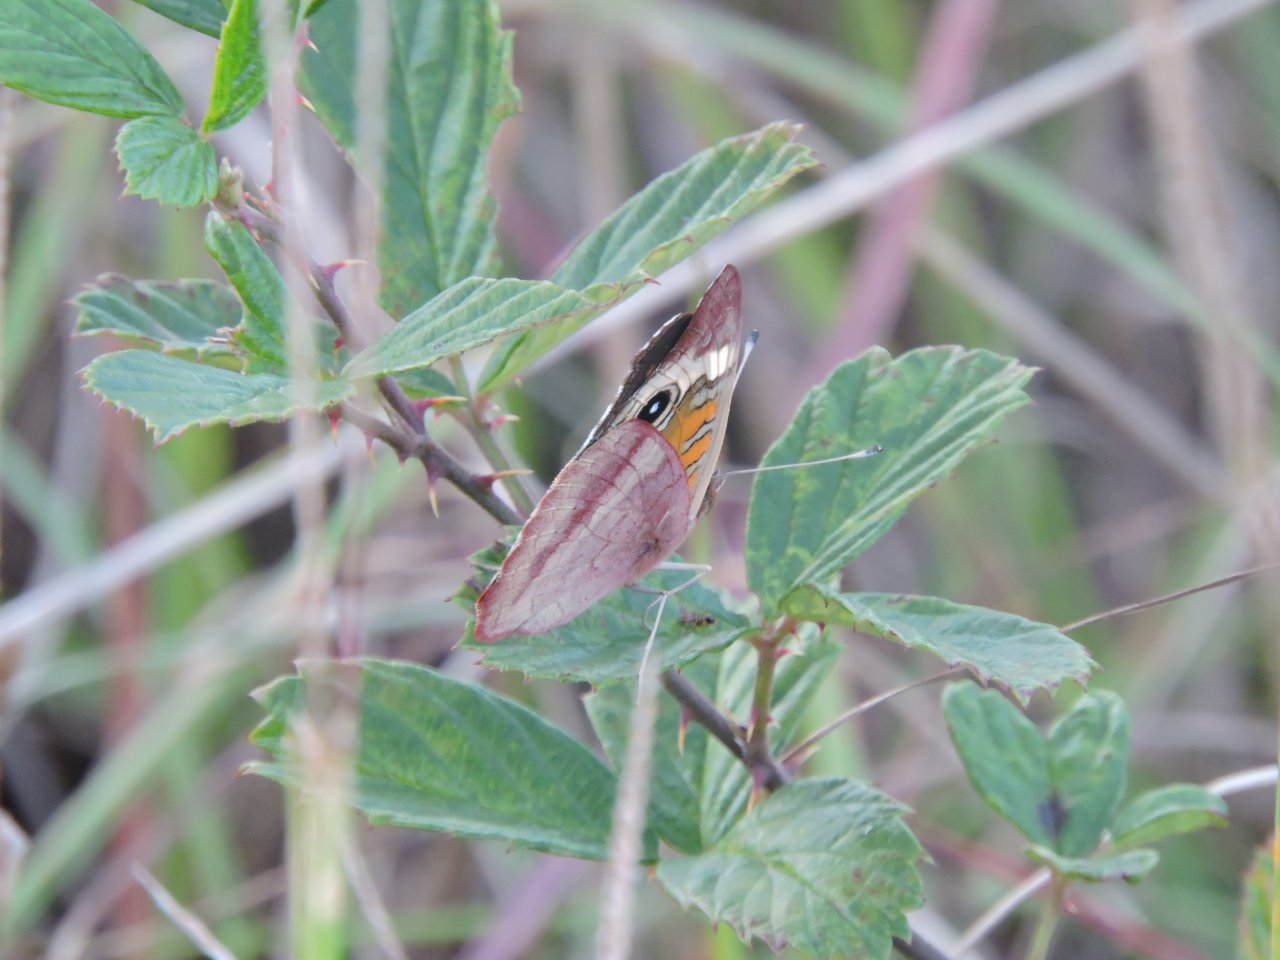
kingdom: Animalia
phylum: Arthropoda
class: Insecta
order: Lepidoptera
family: Nymphalidae
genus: Junonia
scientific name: Junonia coenia
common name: Common Buckeye
